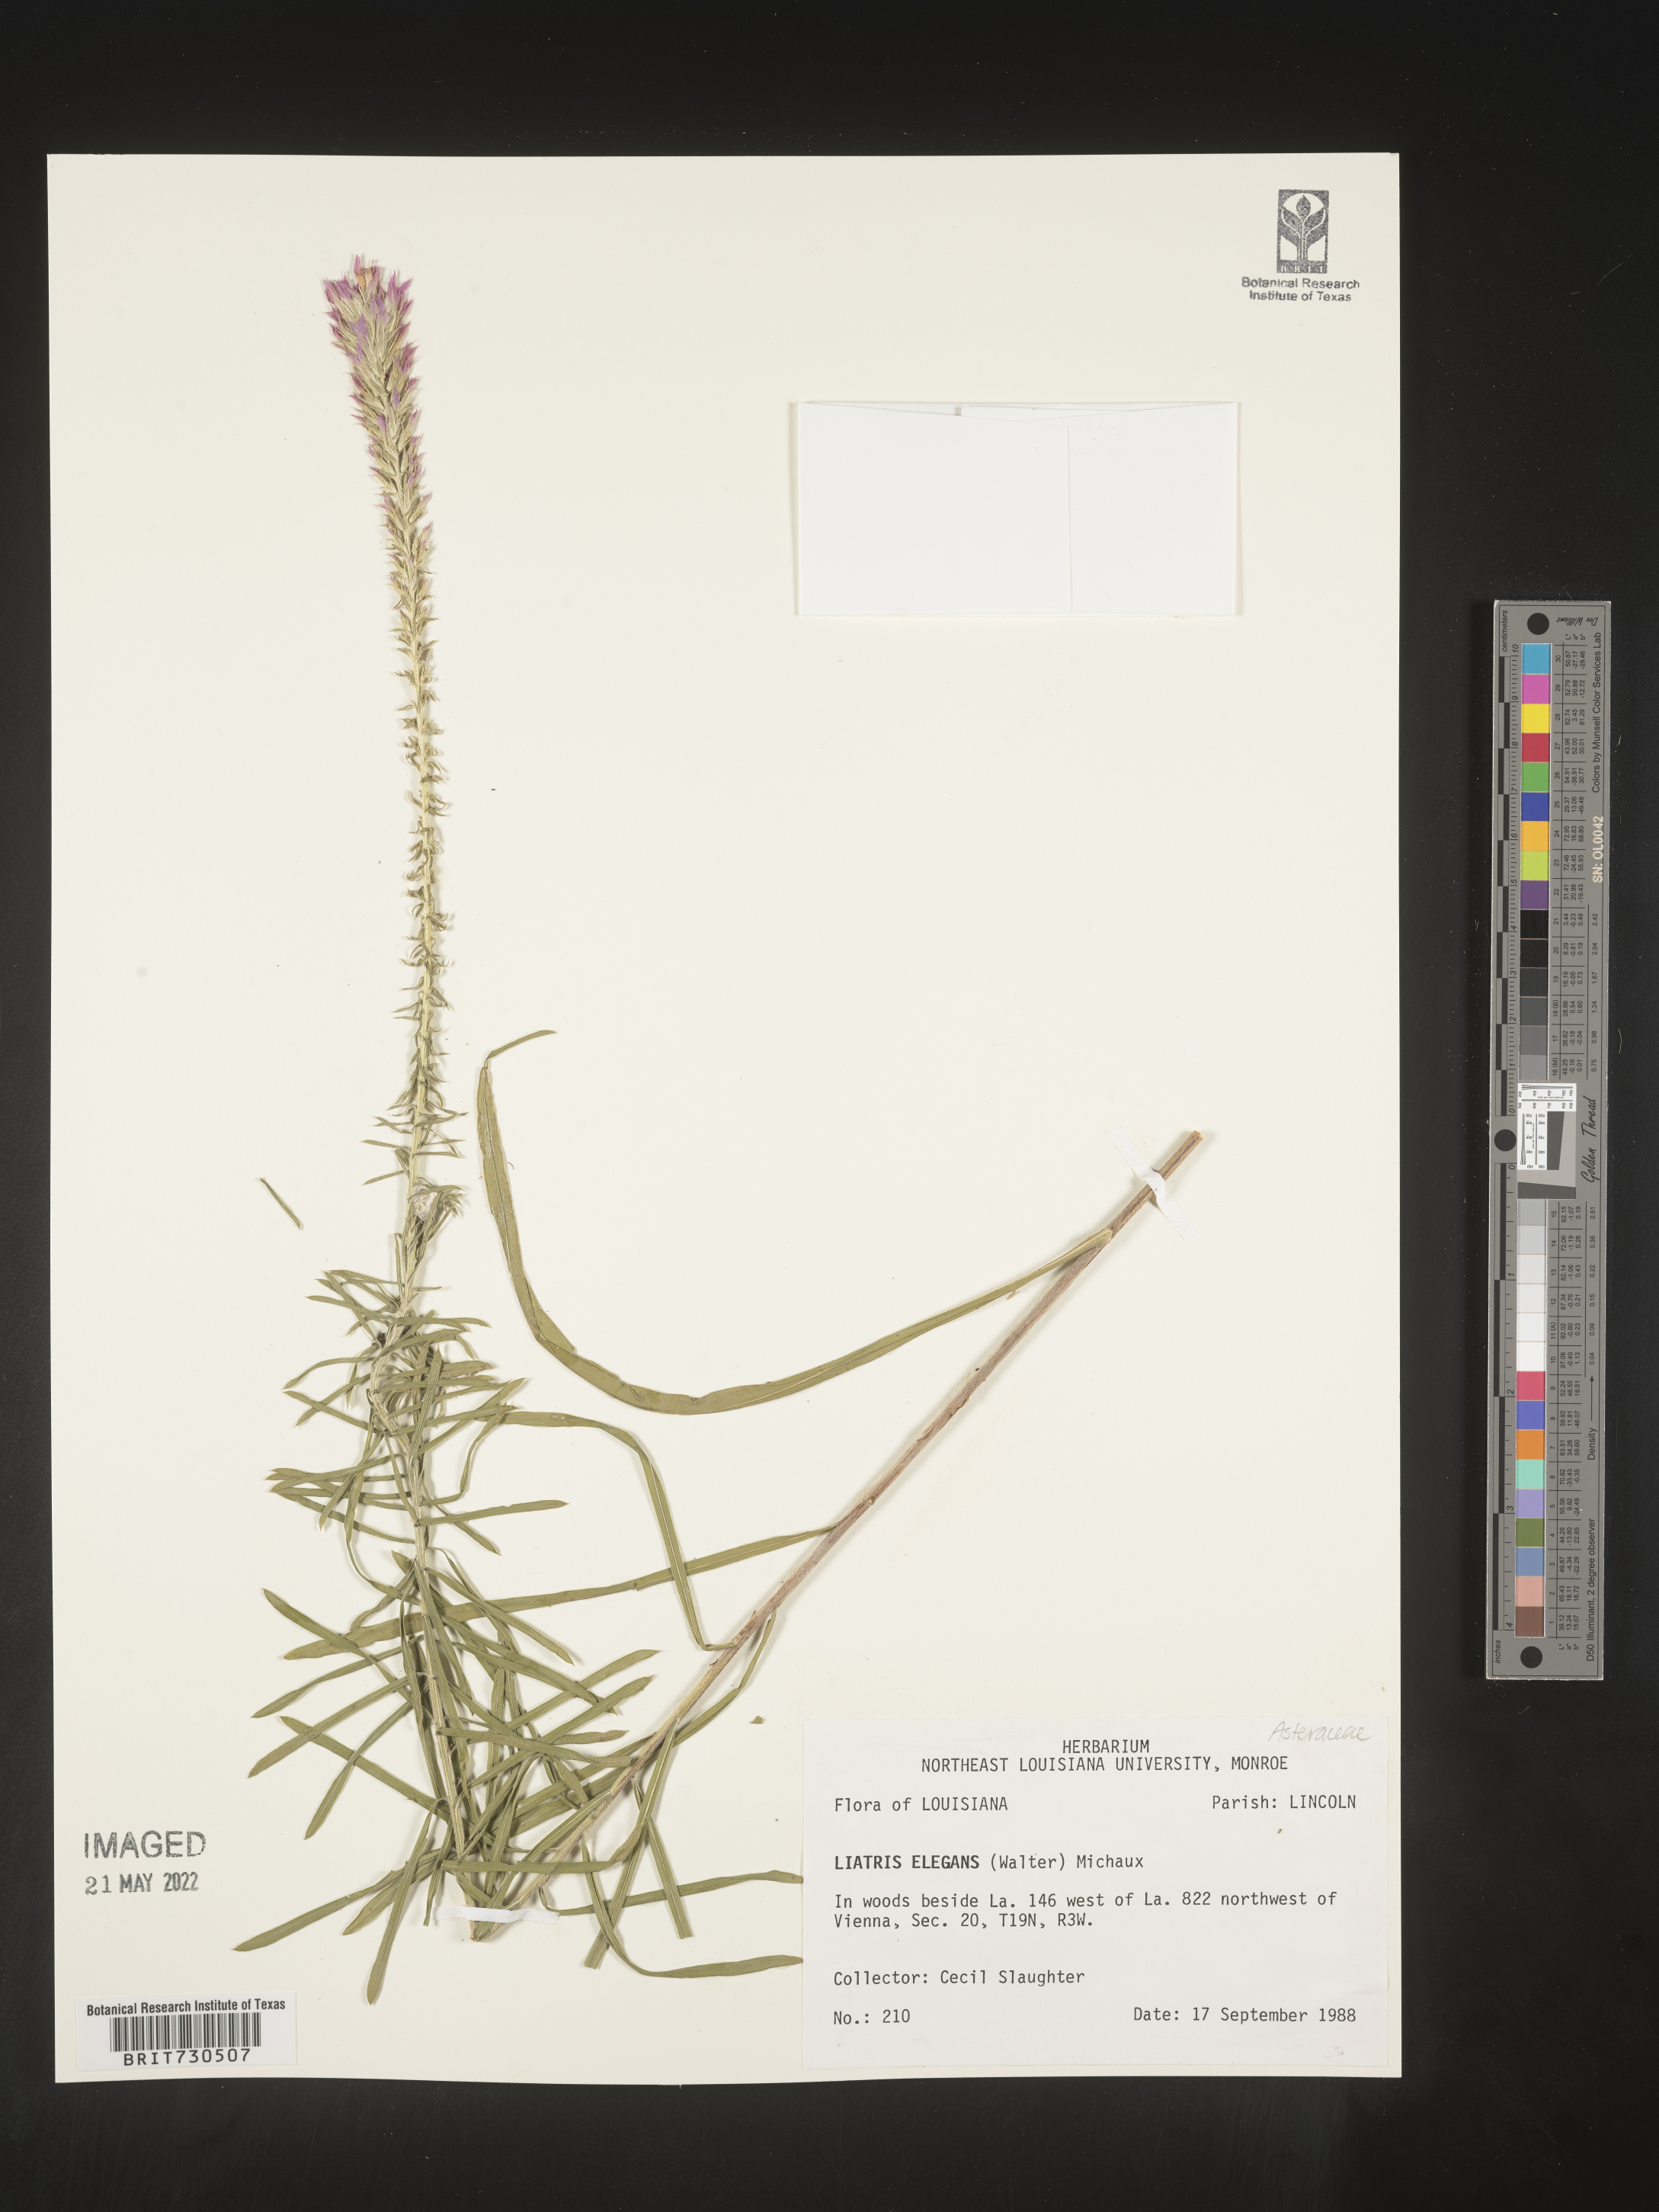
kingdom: Plantae
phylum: Tracheophyta
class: Magnoliopsida
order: Asterales
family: Asteraceae
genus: Liatris
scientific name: Liatris elegans
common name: Pinkscale gayfeather
